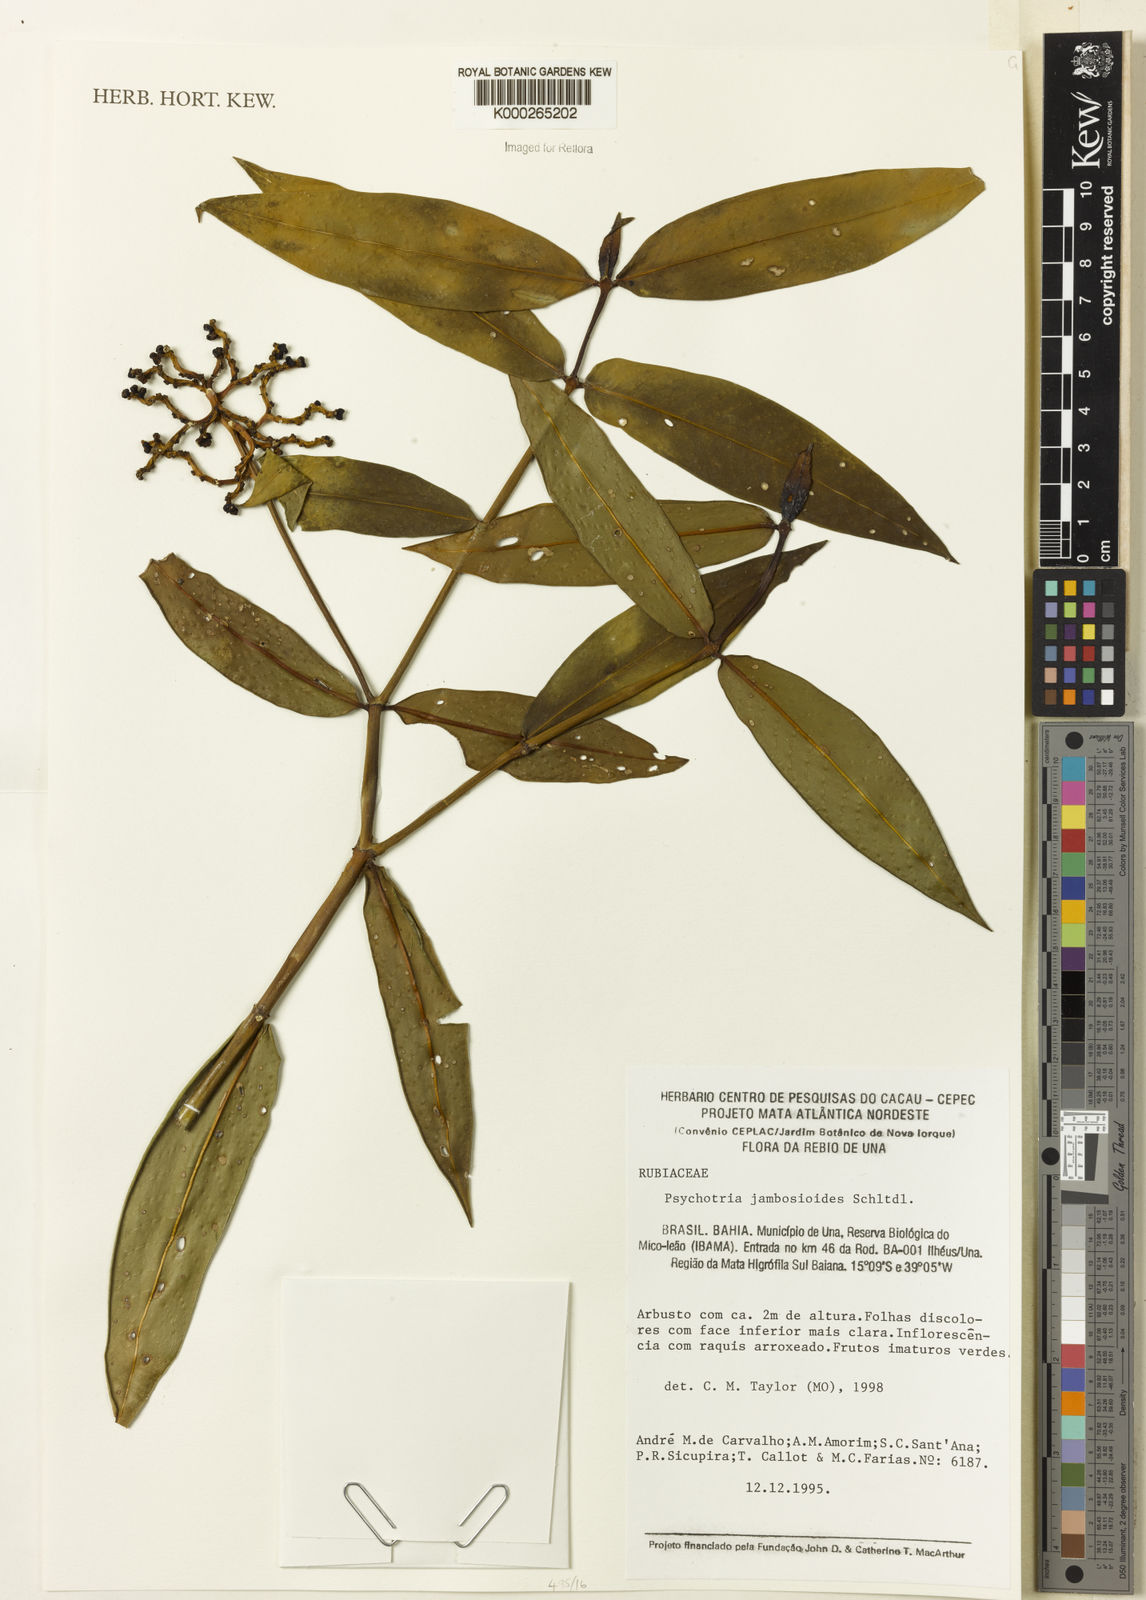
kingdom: Plantae
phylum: Tracheophyta
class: Magnoliopsida
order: Gentianales
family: Rubiaceae
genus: Palicourea
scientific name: Palicourea jambosioides
